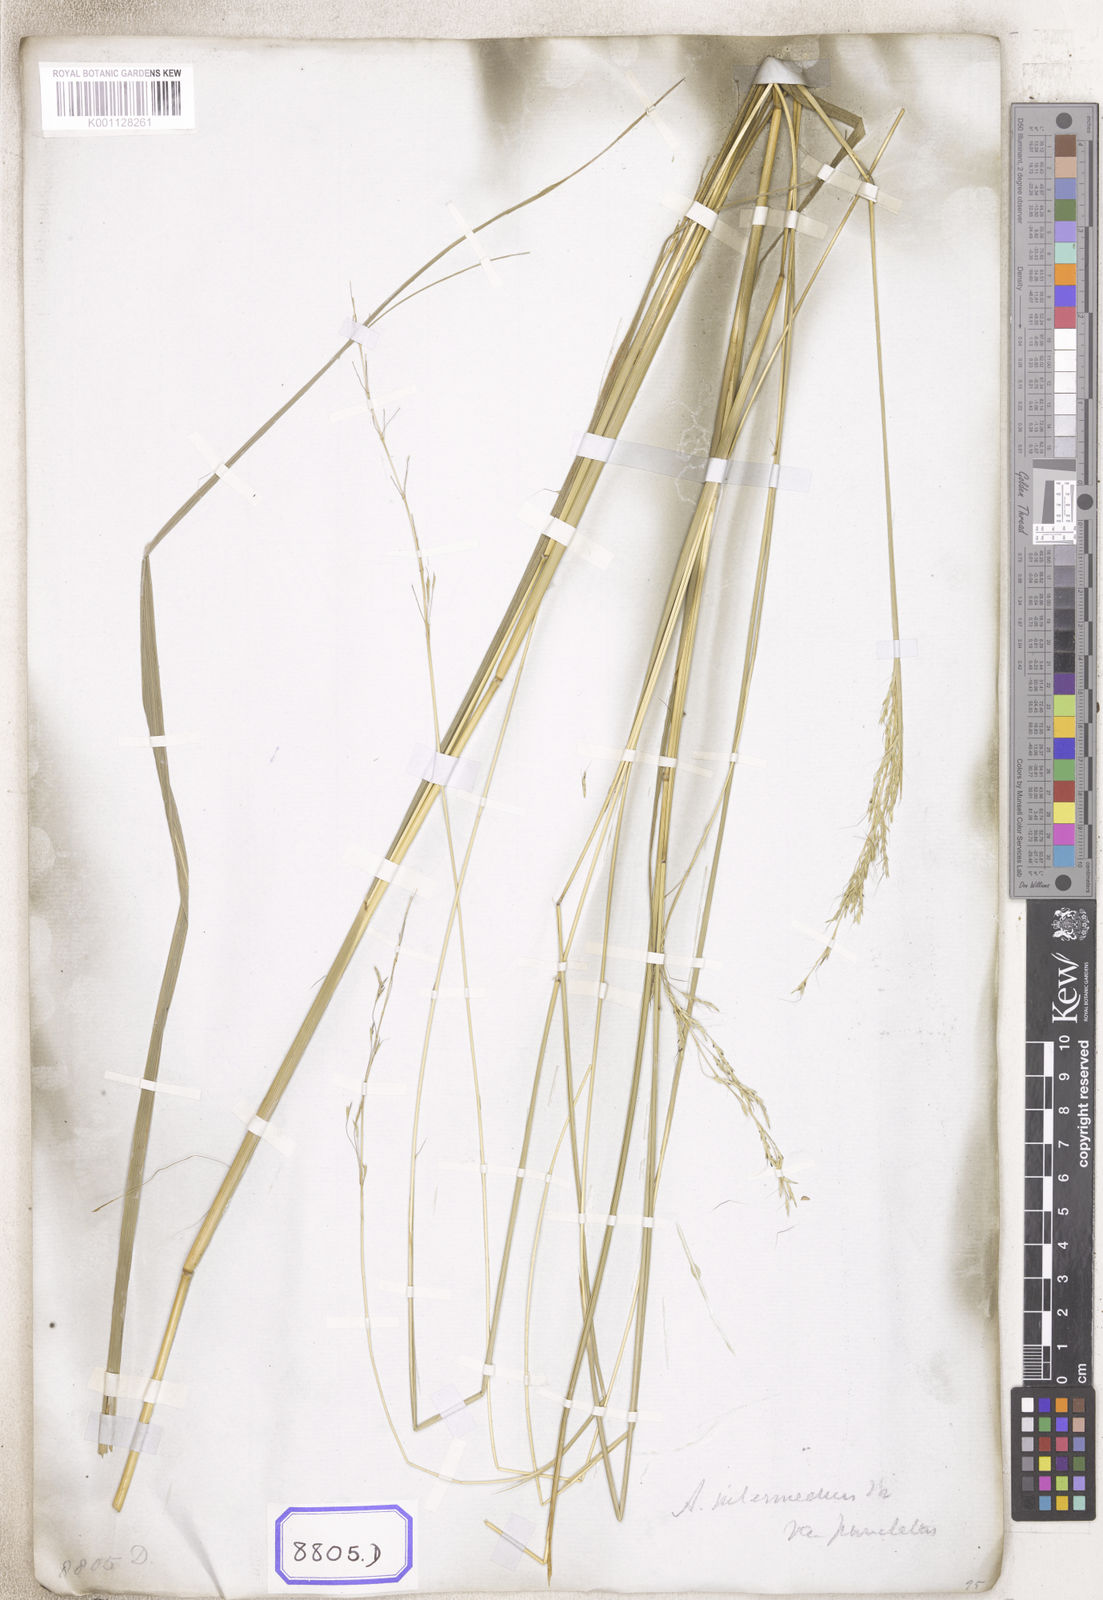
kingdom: Plantae
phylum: Tracheophyta
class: Liliopsida
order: Poales
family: Poaceae
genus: Andropogon
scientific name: Andropogon
